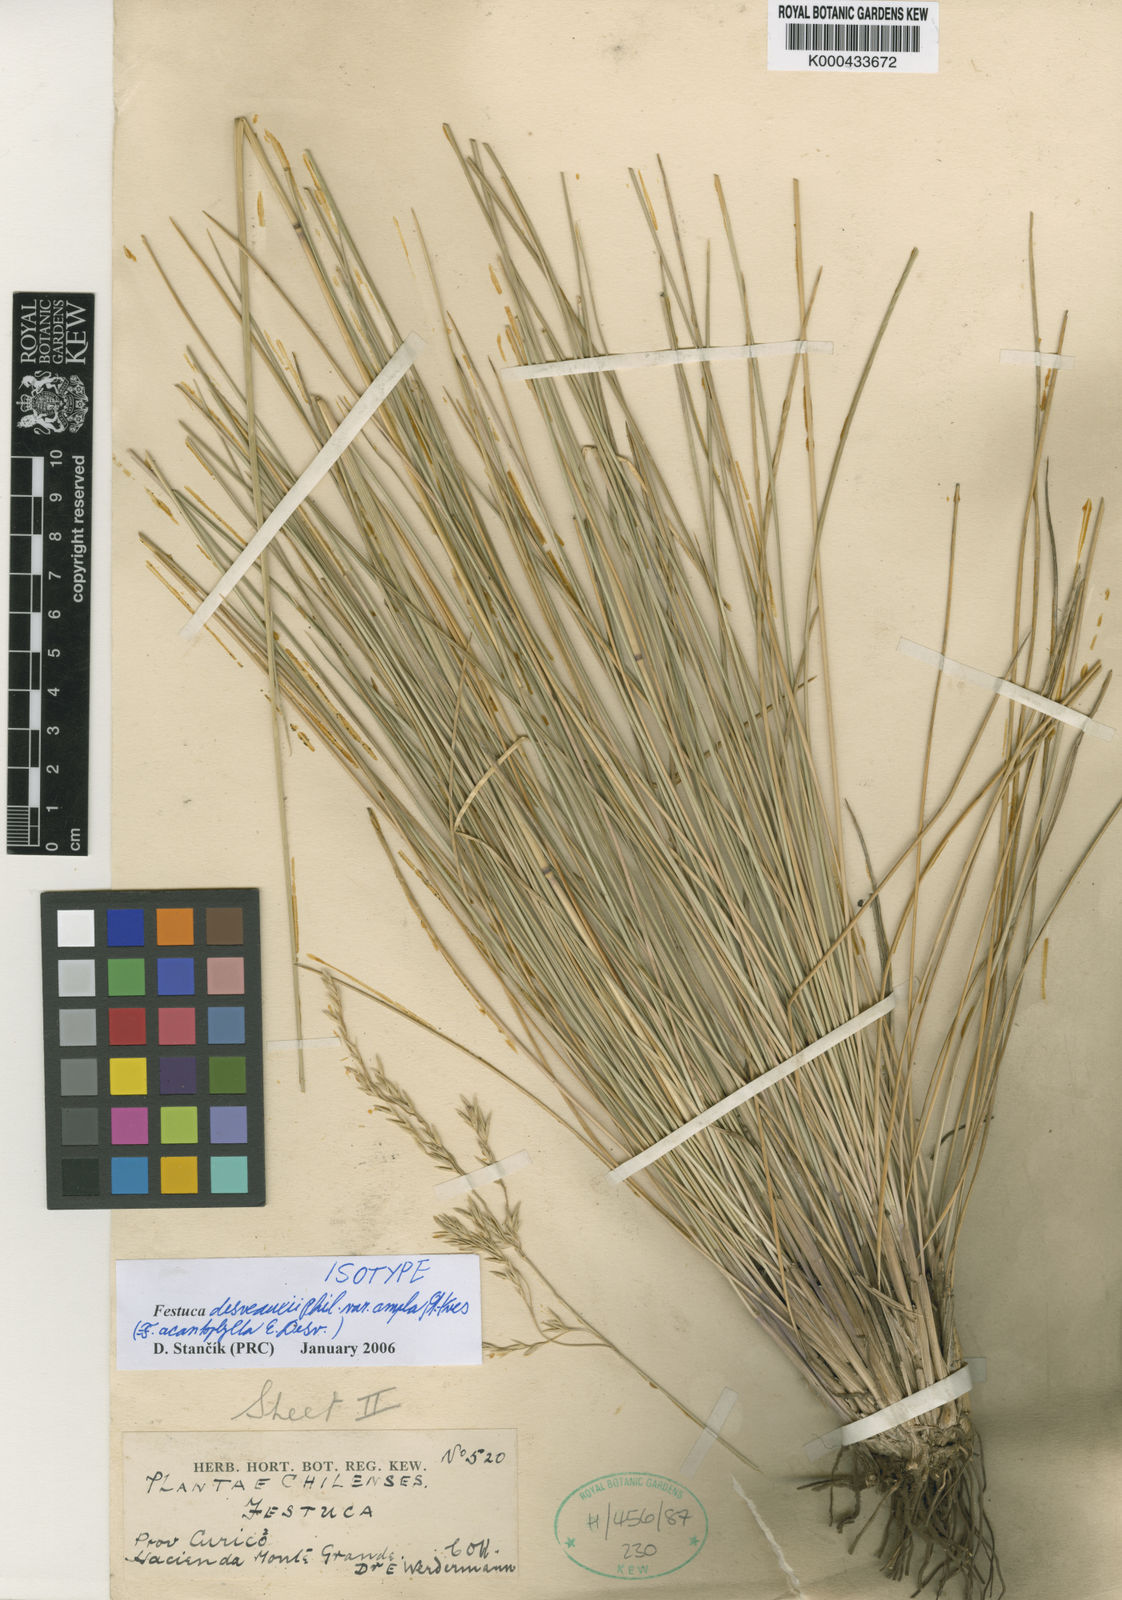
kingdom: Plantae
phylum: Tracheophyta
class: Liliopsida
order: Poales
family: Poaceae
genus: Festuca
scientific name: Festuca acanthophylla
